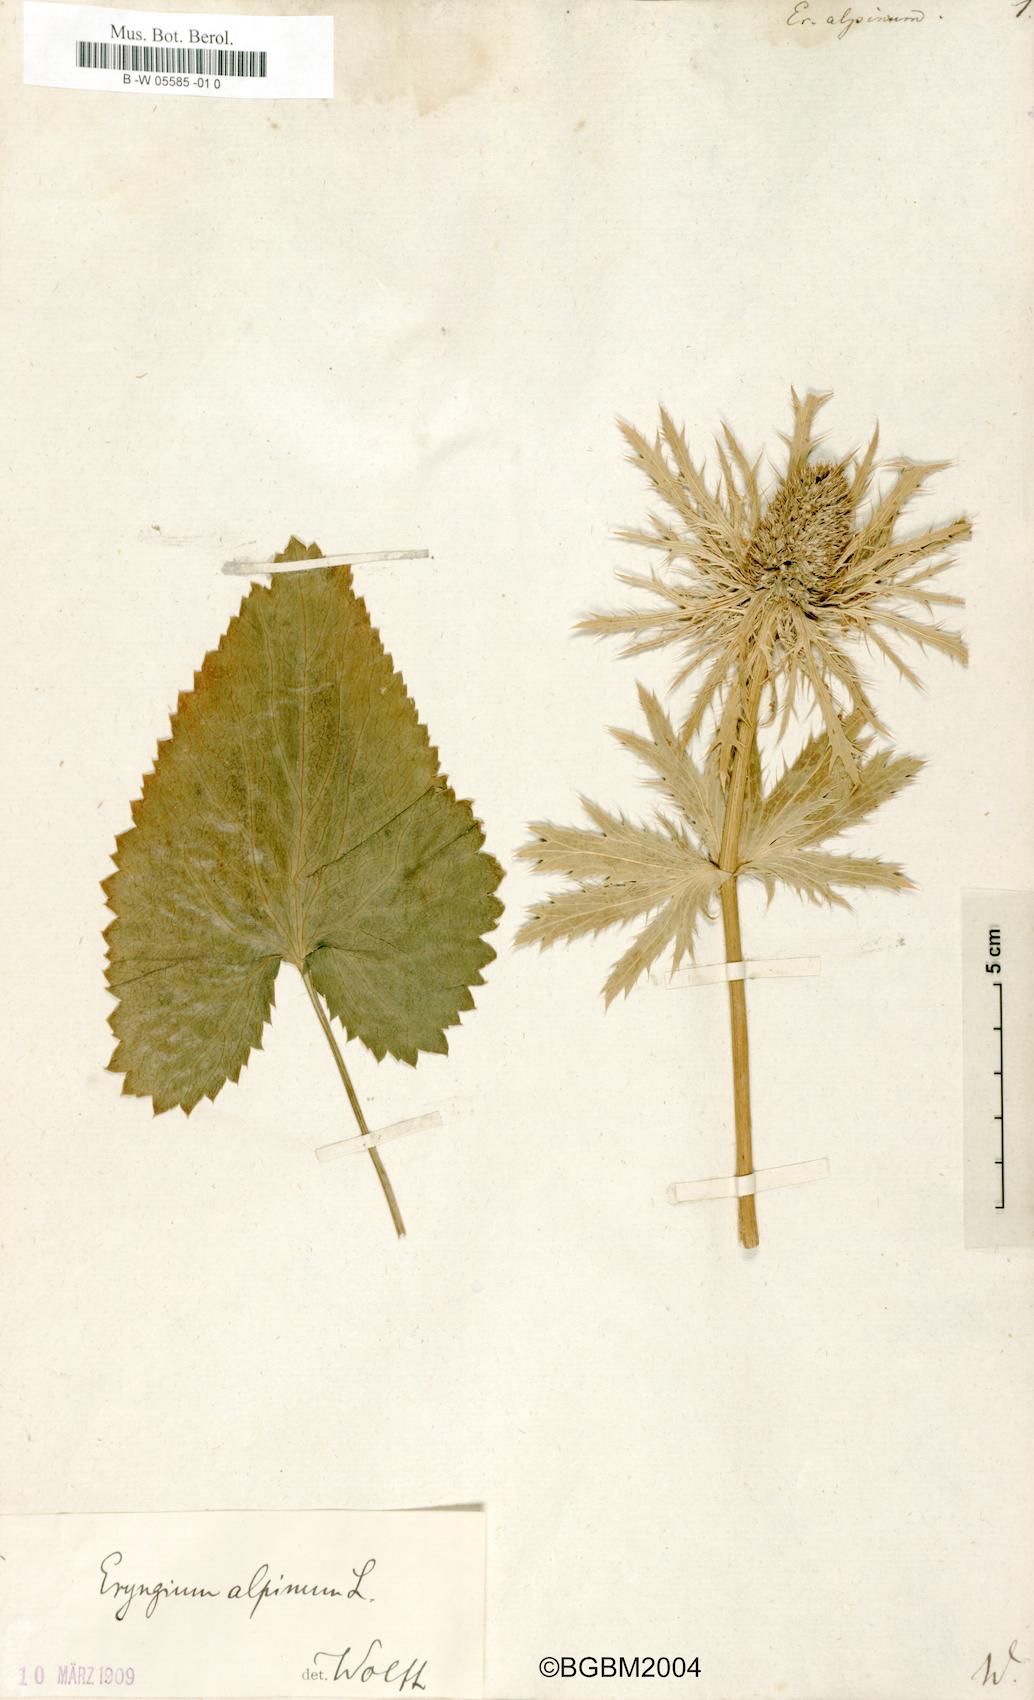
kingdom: Plantae
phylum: Tracheophyta
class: Magnoliopsida
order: Apiales
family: Apiaceae
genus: Eryngium
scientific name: Eryngium alpinum
